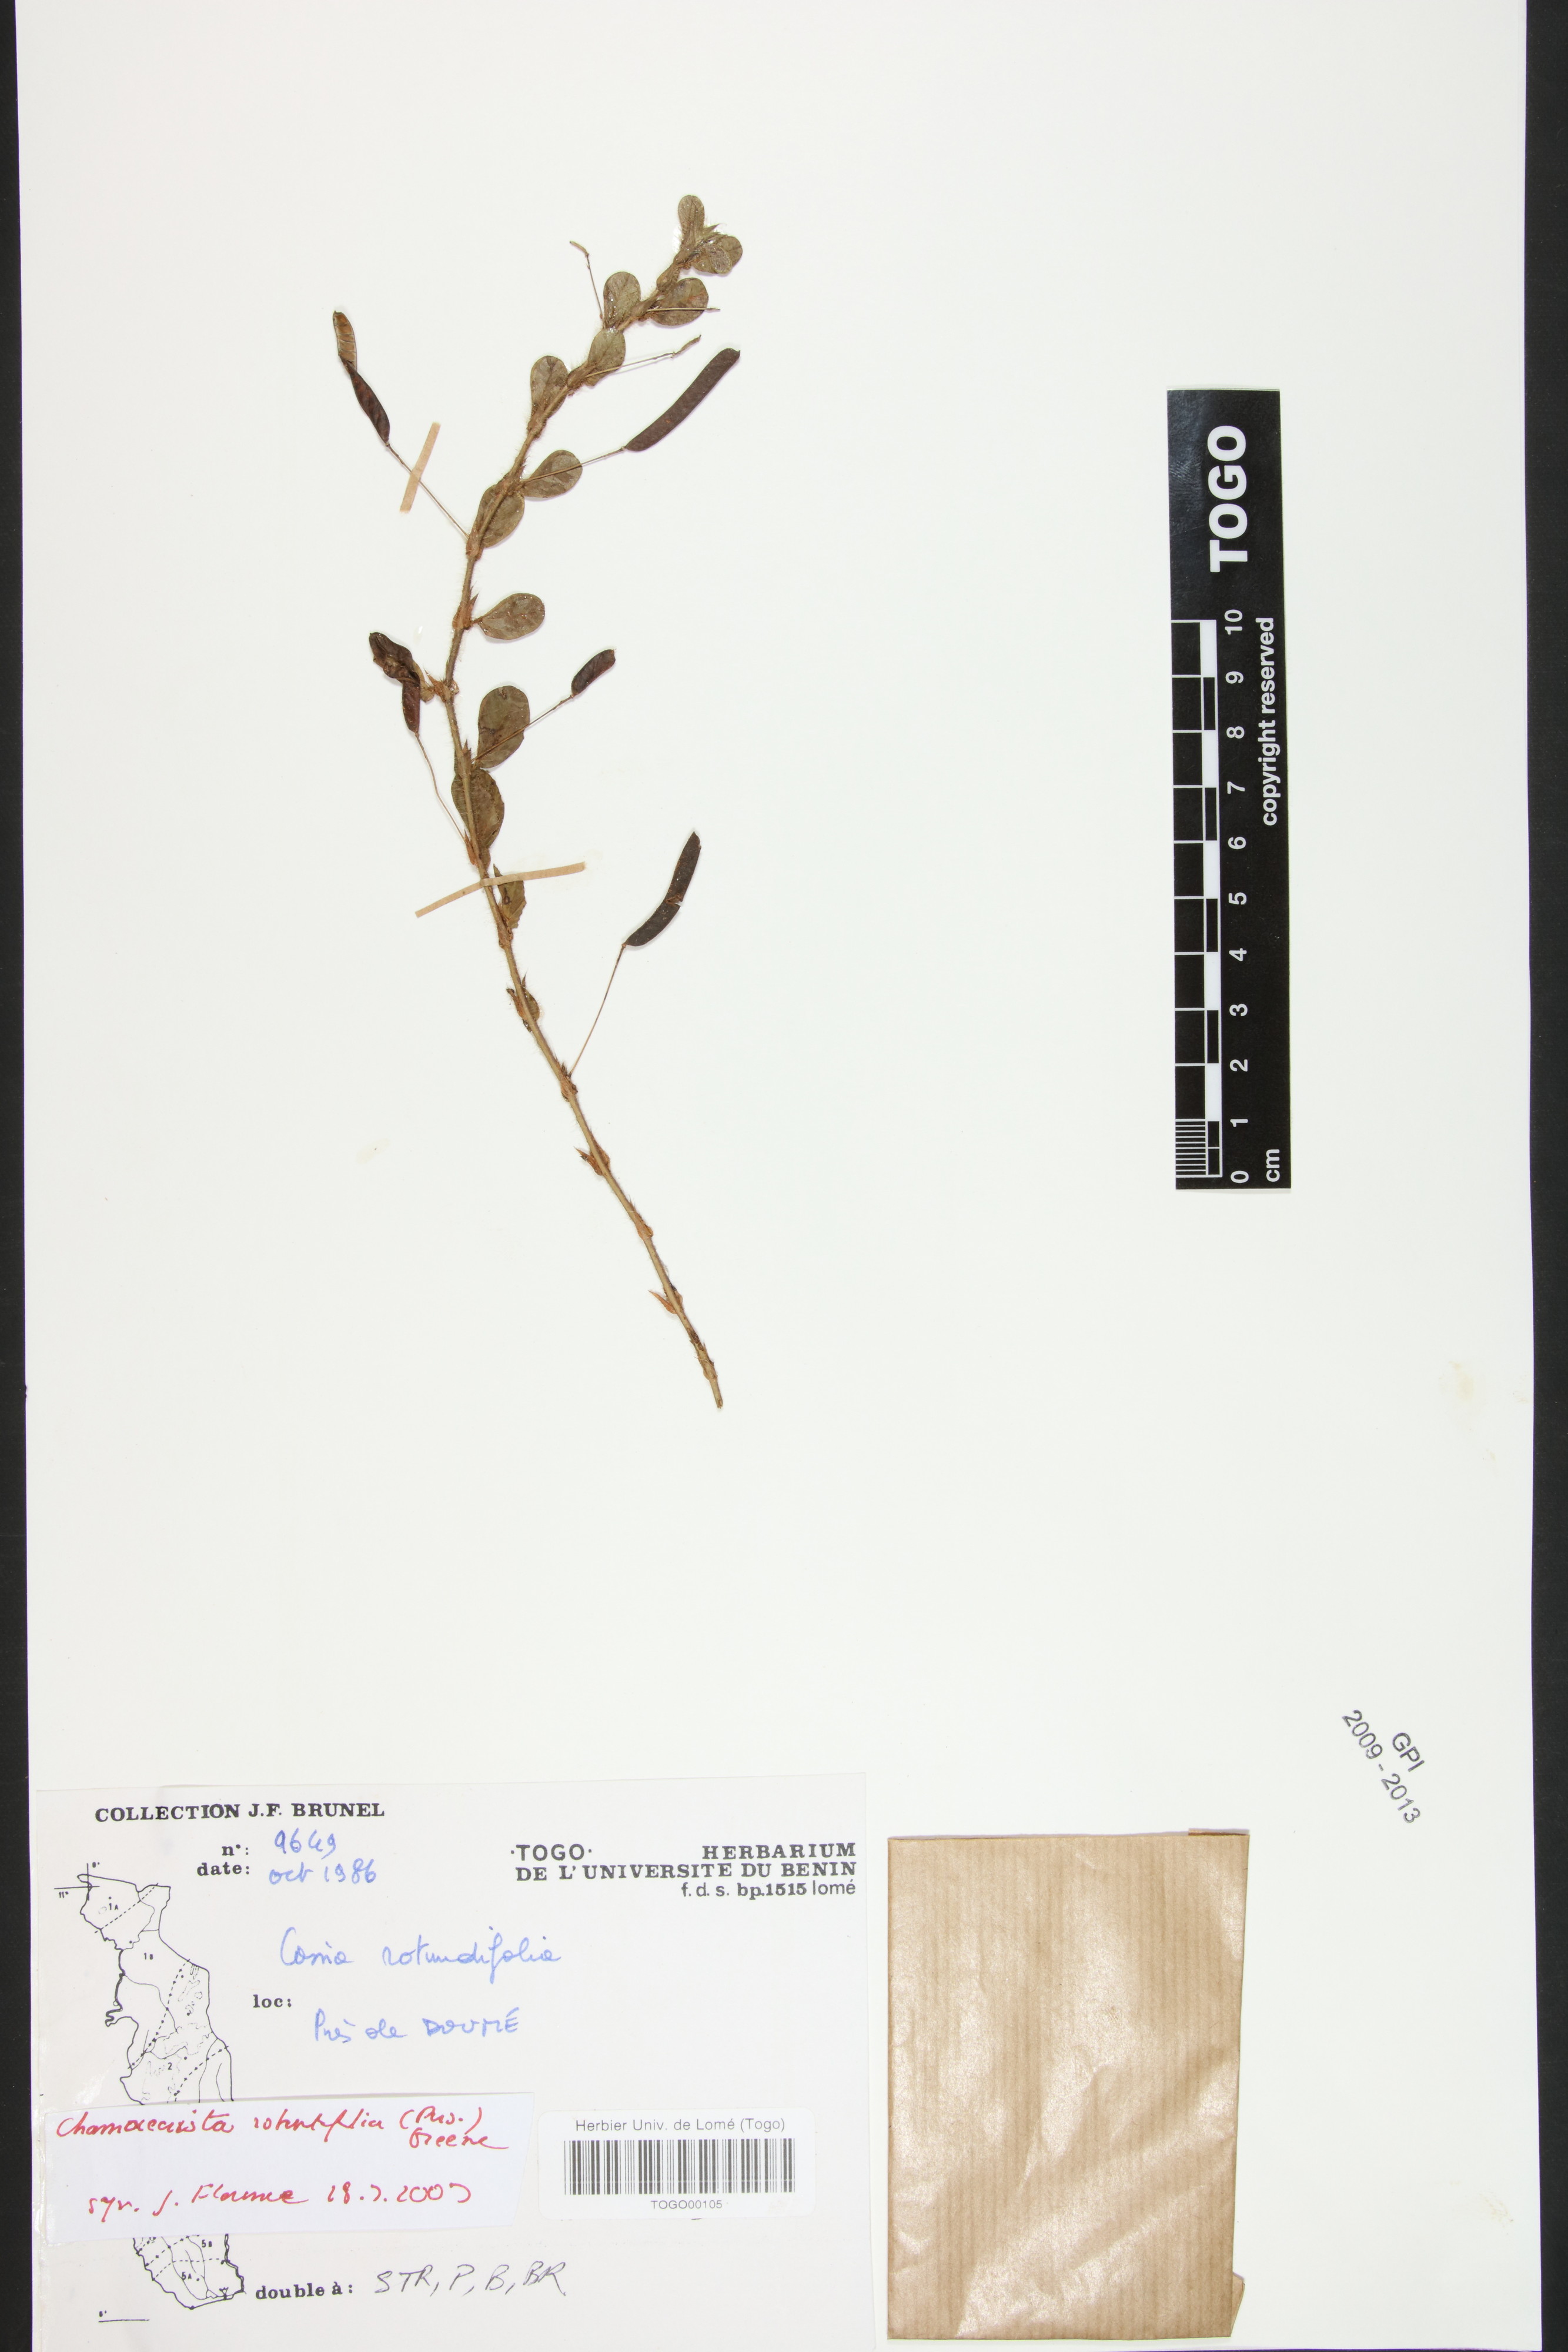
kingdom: Plantae
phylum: Tracheophyta
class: Magnoliopsida
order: Fabales
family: Fabaceae
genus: Chamaecrista
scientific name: Chamaecrista rotundifolia
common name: Round-leaf cassia
